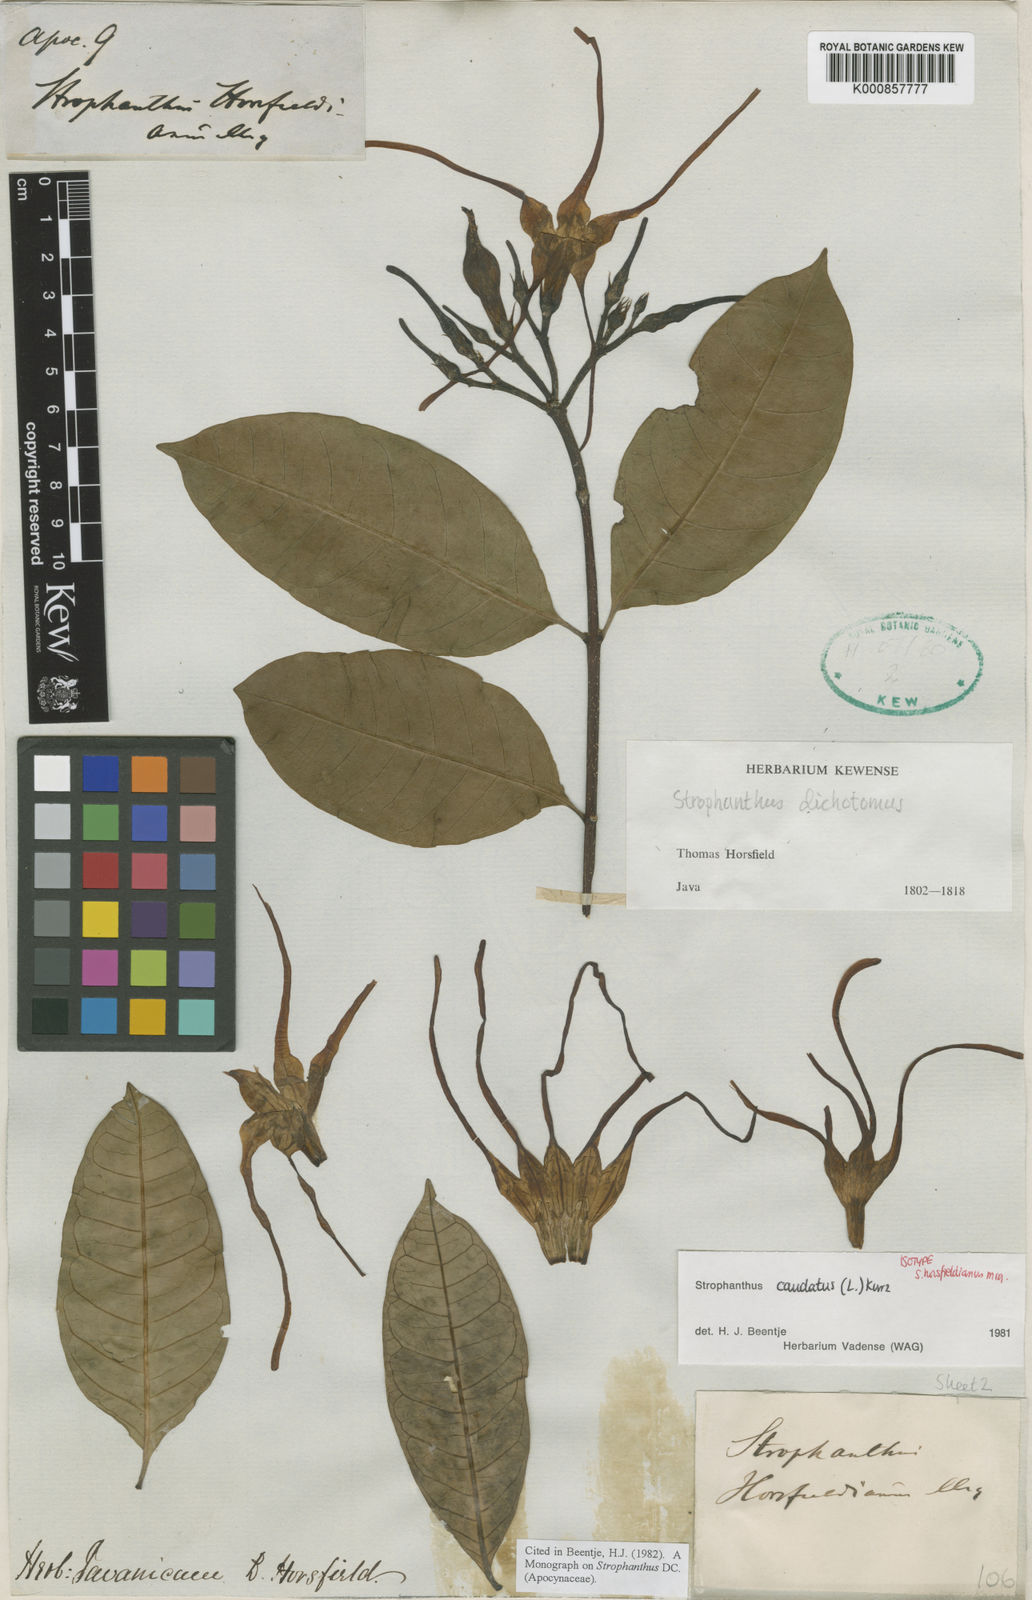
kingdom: Plantae
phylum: Tracheophyta
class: Magnoliopsida
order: Gentianales
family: Apocynaceae
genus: Strophanthus
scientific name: Strophanthus caudatus
